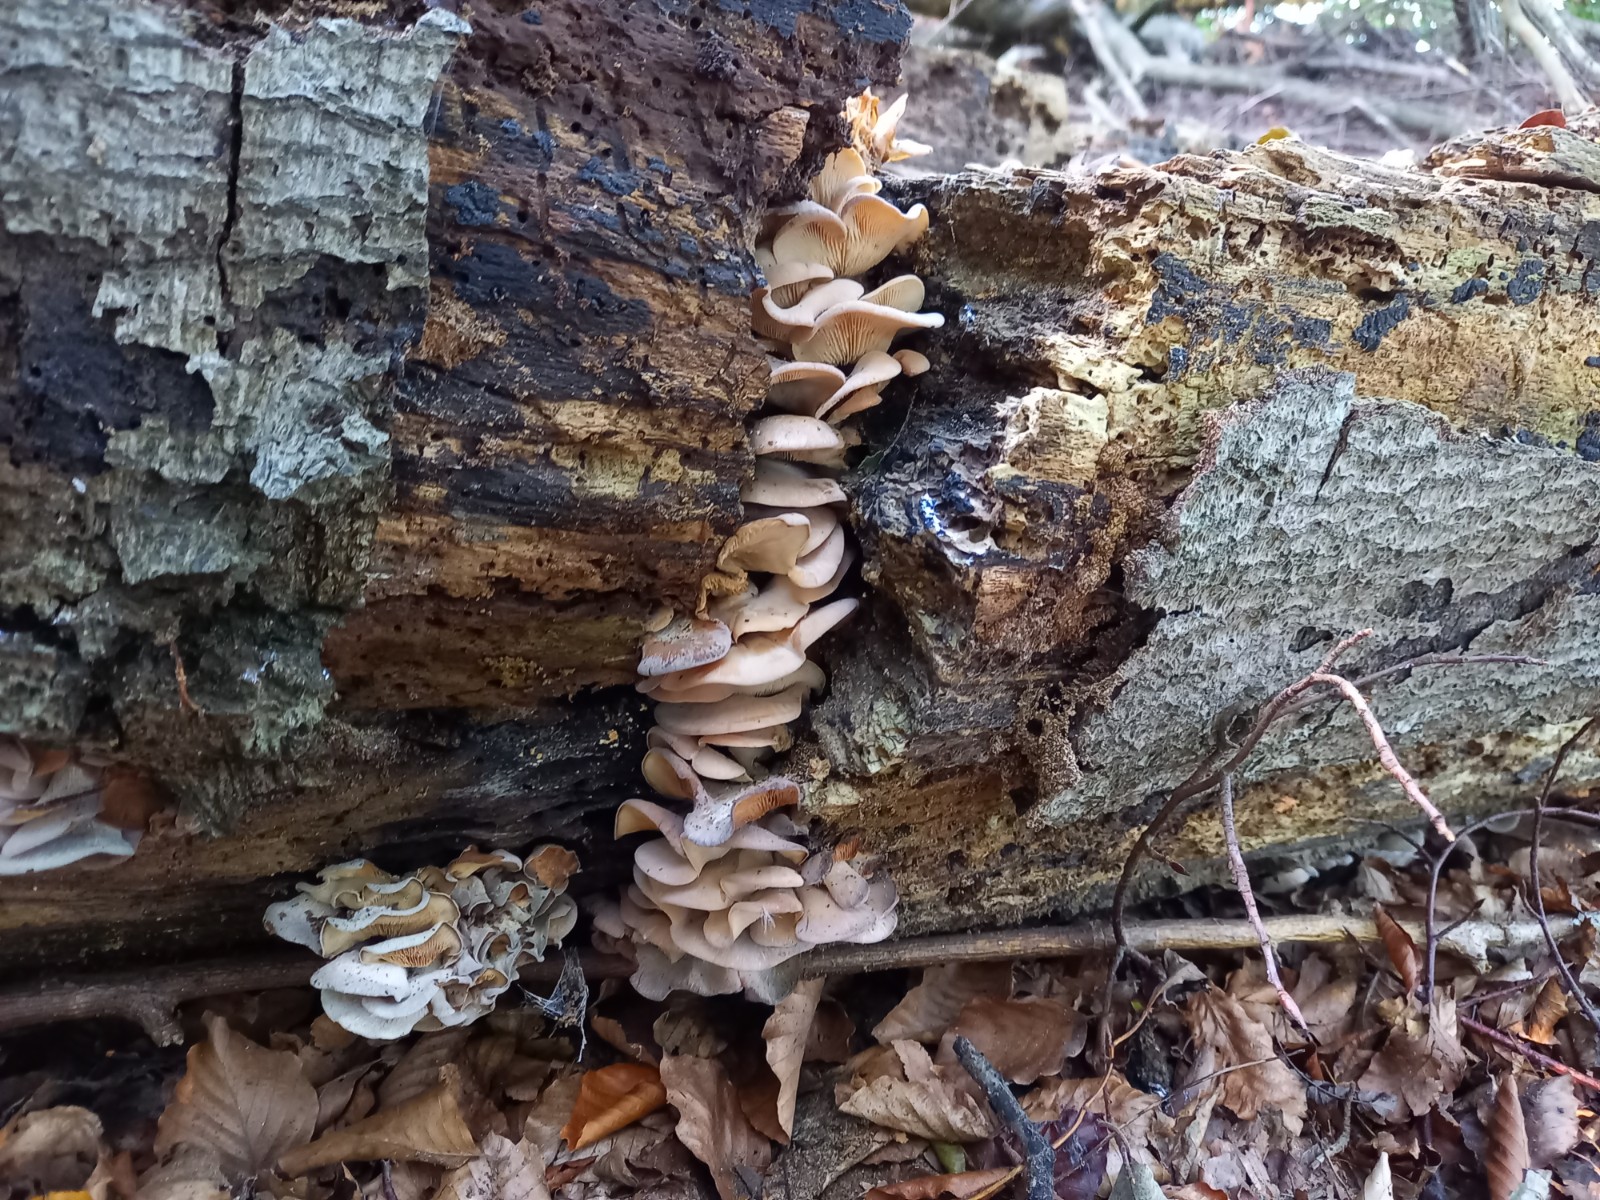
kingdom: Fungi
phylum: Basidiomycota
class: Agaricomycetes
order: Russulales
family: Auriscalpiaceae
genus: Lentinellus
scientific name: Lentinellus ursinus
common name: børstehåret savbladhat
